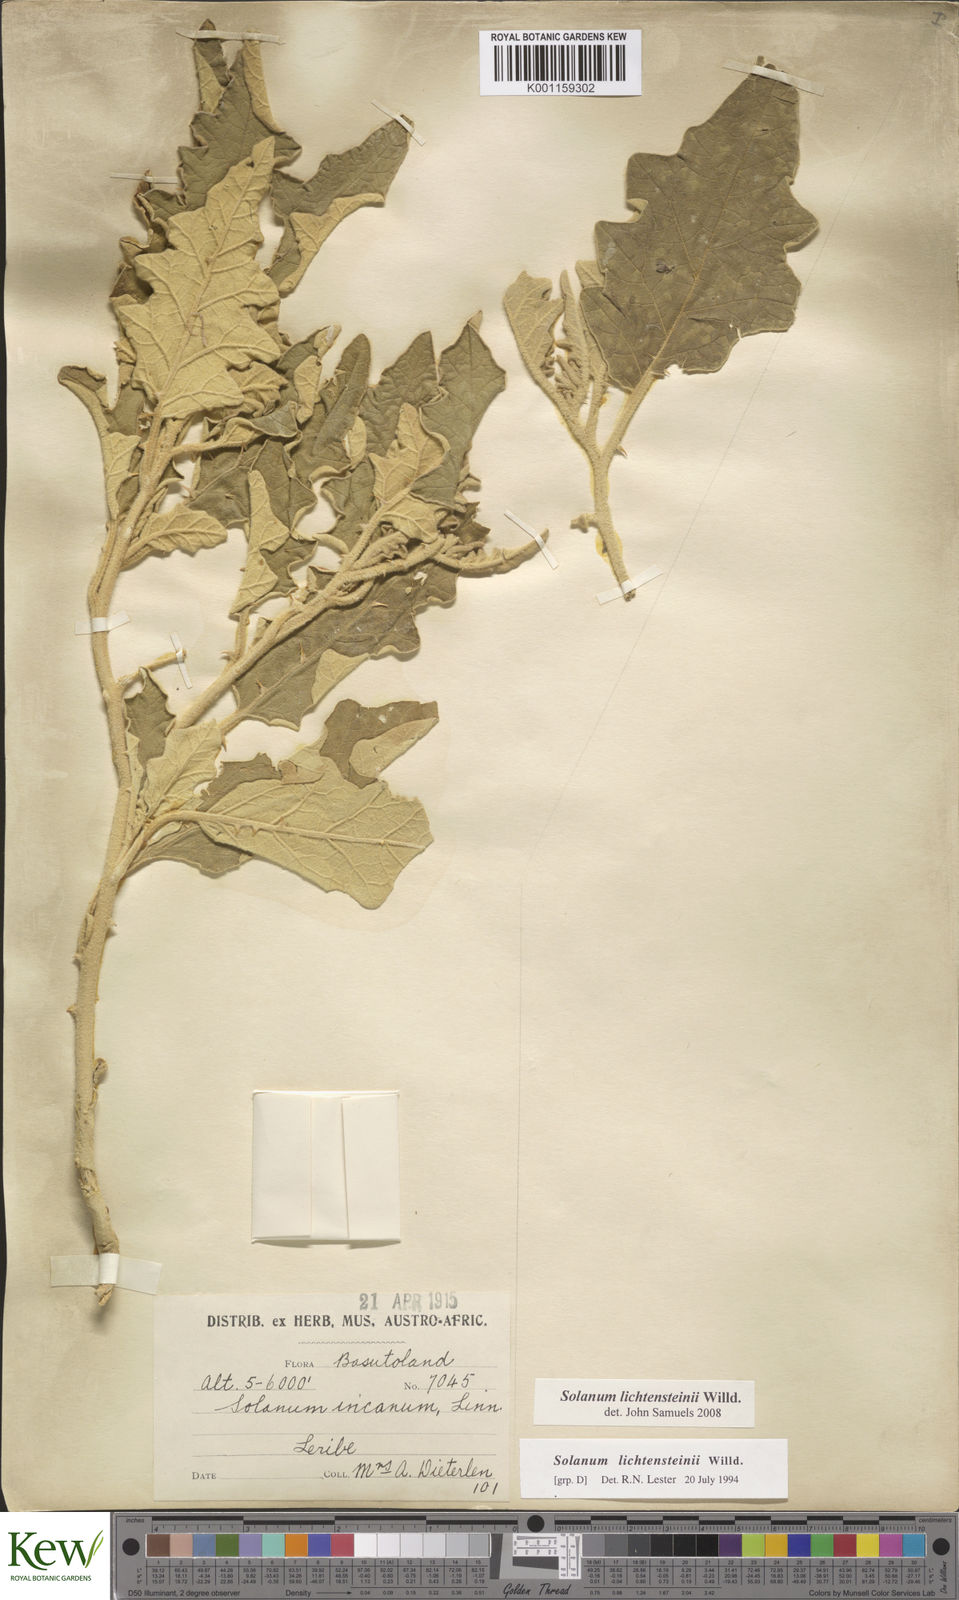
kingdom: Plantae
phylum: Tracheophyta
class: Magnoliopsida
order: Solanales
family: Solanaceae
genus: Solanum
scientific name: Solanum lichtensteinii
